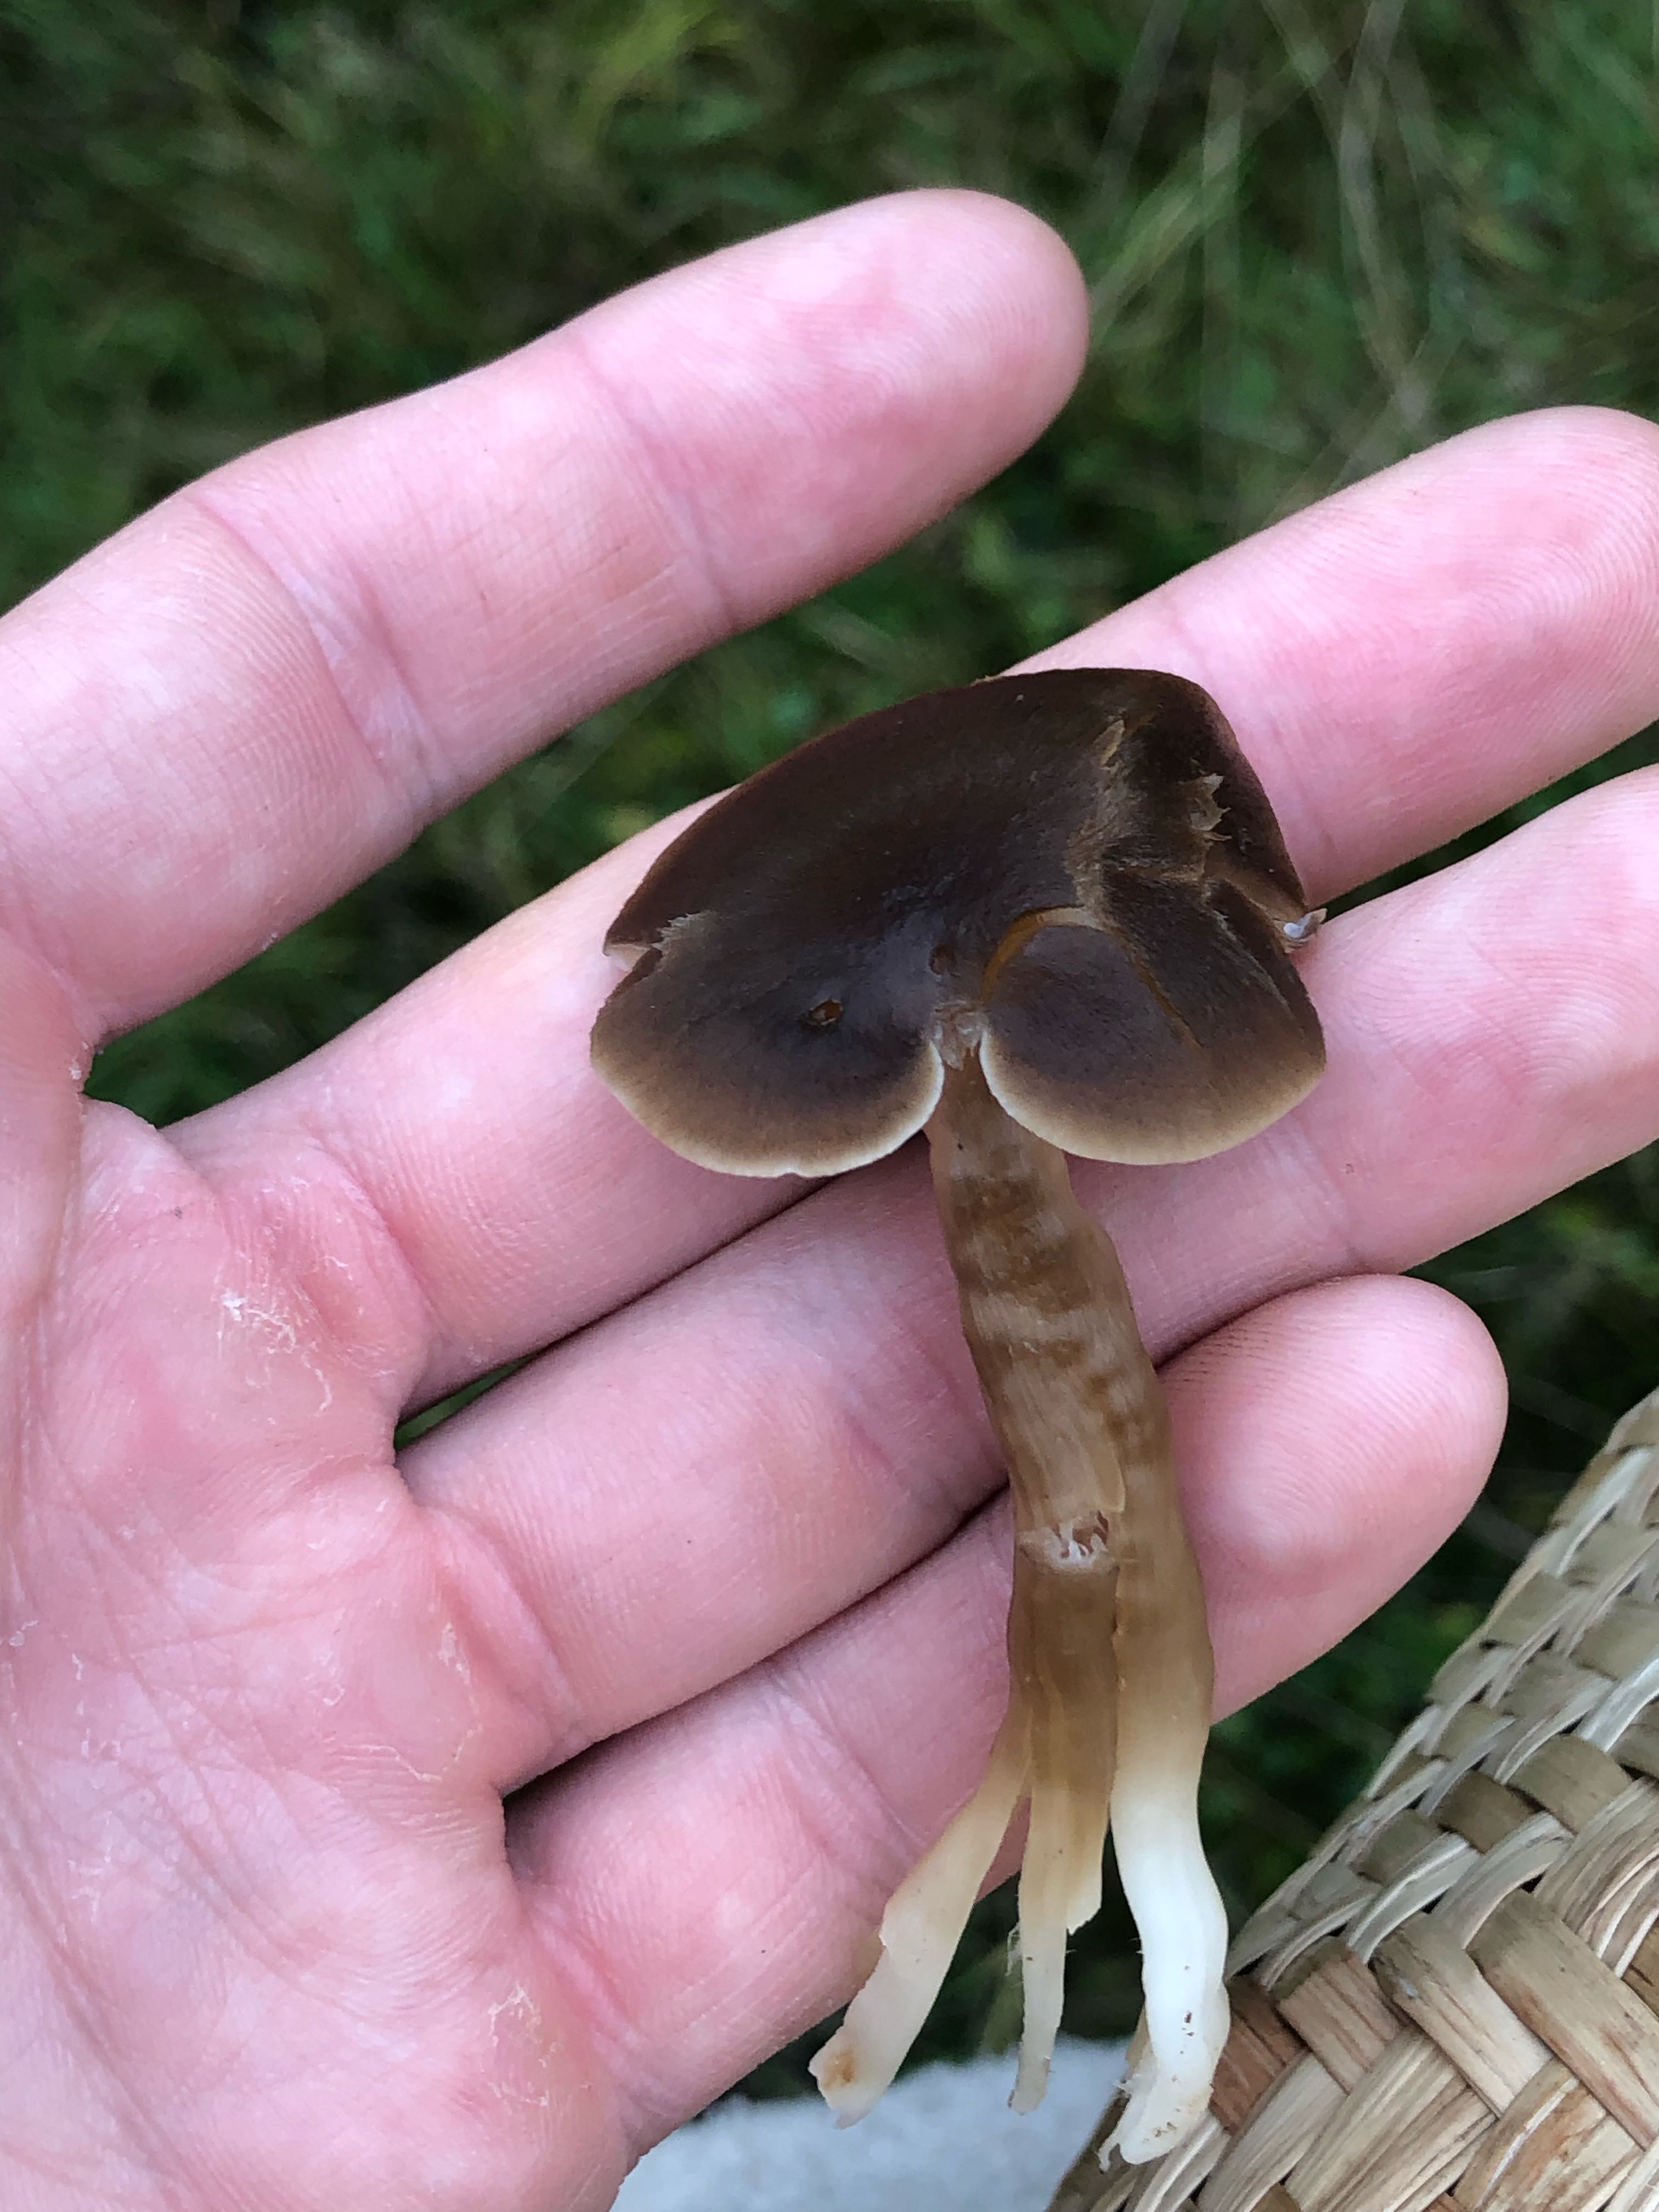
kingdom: Fungi
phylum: Basidiomycota
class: Agaricomycetes
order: Agaricales
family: Hygrophoraceae
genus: Neohygrocybe
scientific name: Neohygrocybe nitrata
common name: stinkende vokshat
